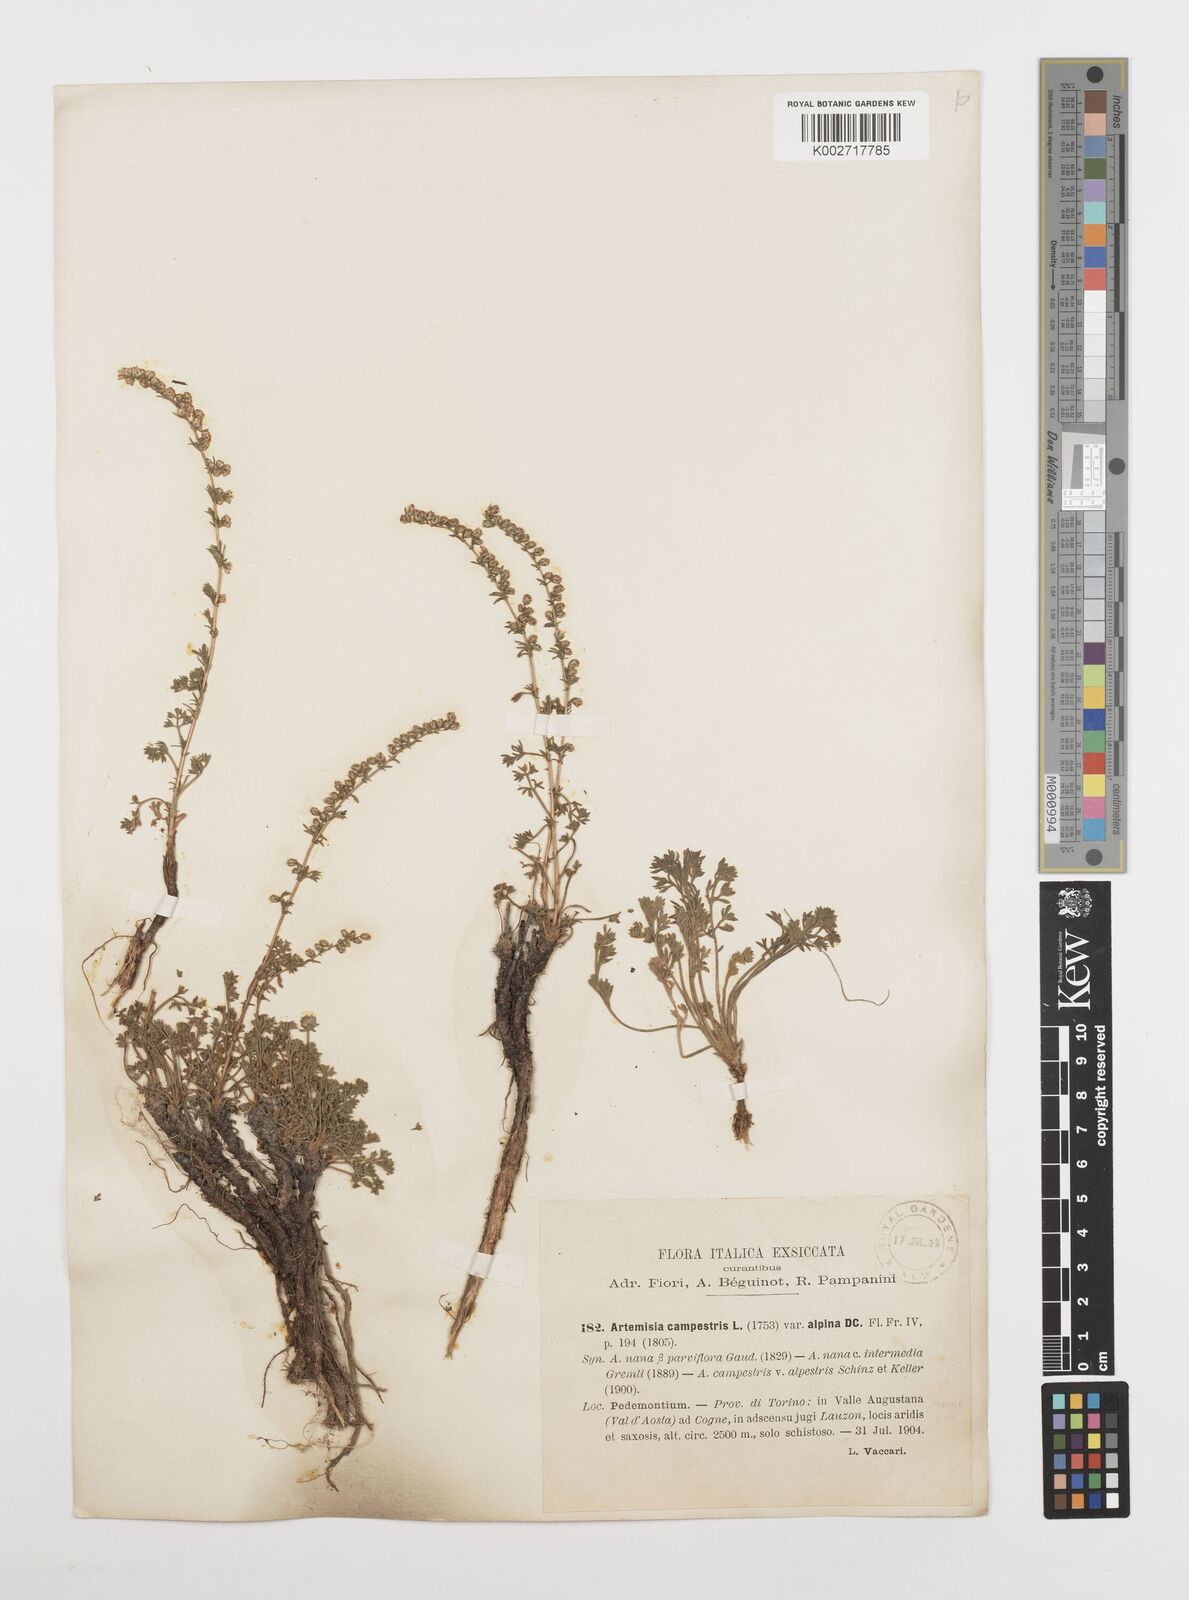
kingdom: Plantae
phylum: Tracheophyta
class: Magnoliopsida
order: Asterales
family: Asteraceae
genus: Artemisia
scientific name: Artemisia campestris
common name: Field wormwood
